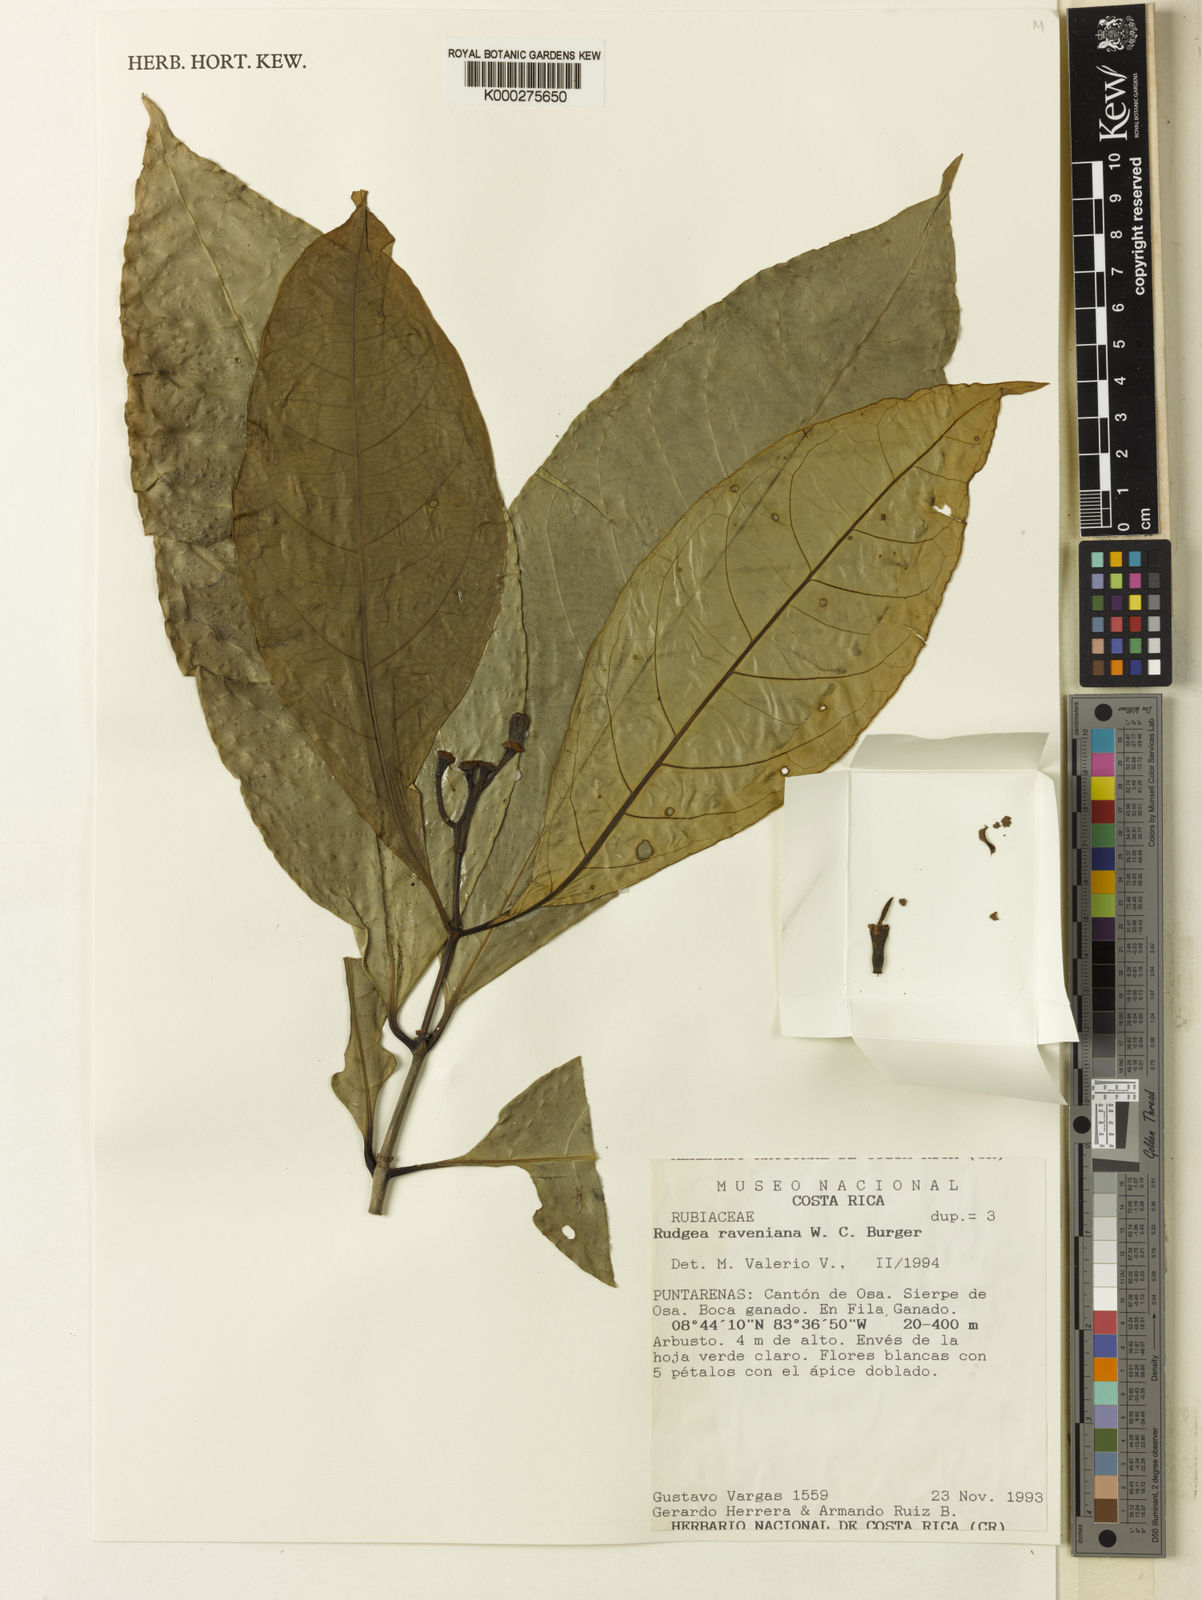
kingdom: Plantae
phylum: Tracheophyta
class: Magnoliopsida
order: Gentianales
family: Rubiaceae
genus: Rudgea
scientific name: Rudgea raveniana
